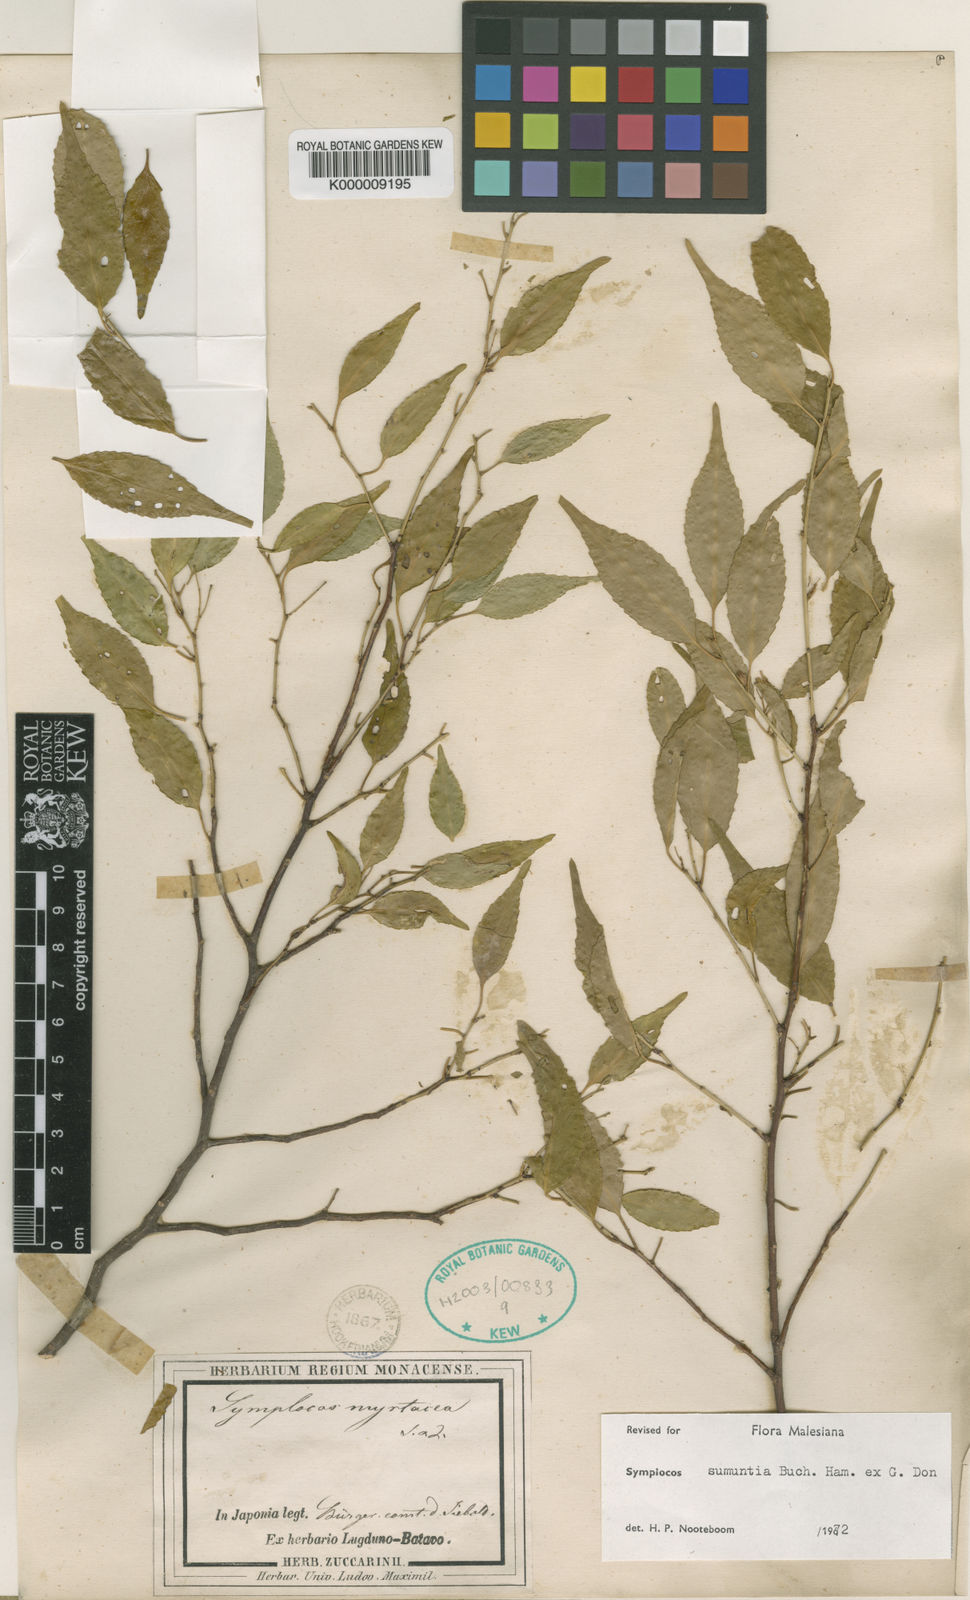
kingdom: Plantae
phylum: Tracheophyta
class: Magnoliopsida
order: Ericales
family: Symplocaceae
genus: Symplocos
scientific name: Symplocos myrtacea
